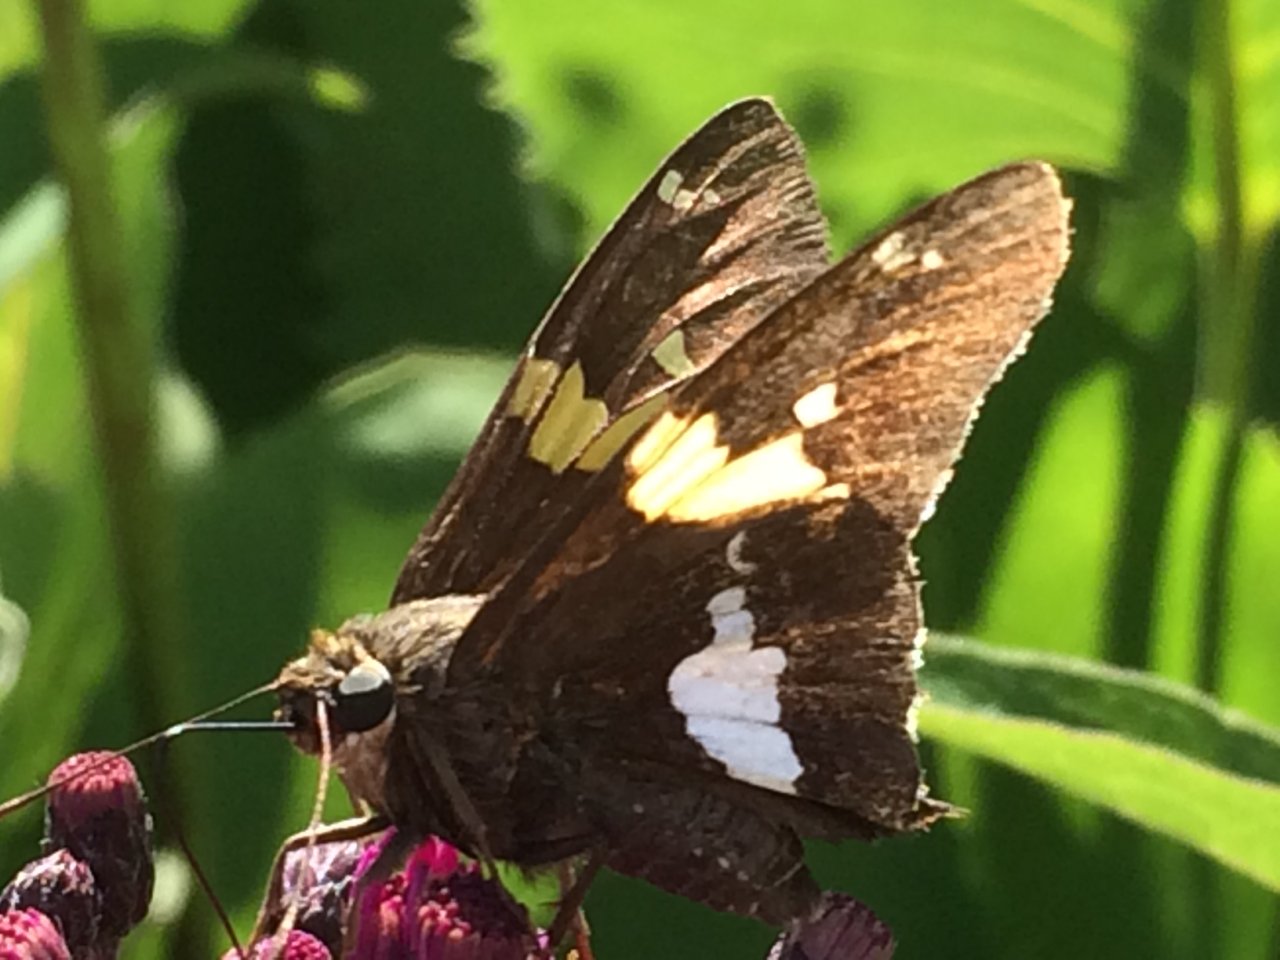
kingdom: Animalia
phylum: Arthropoda
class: Insecta
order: Lepidoptera
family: Hesperiidae
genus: Epargyreus
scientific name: Epargyreus clarus
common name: Silver-spotted Skipper
